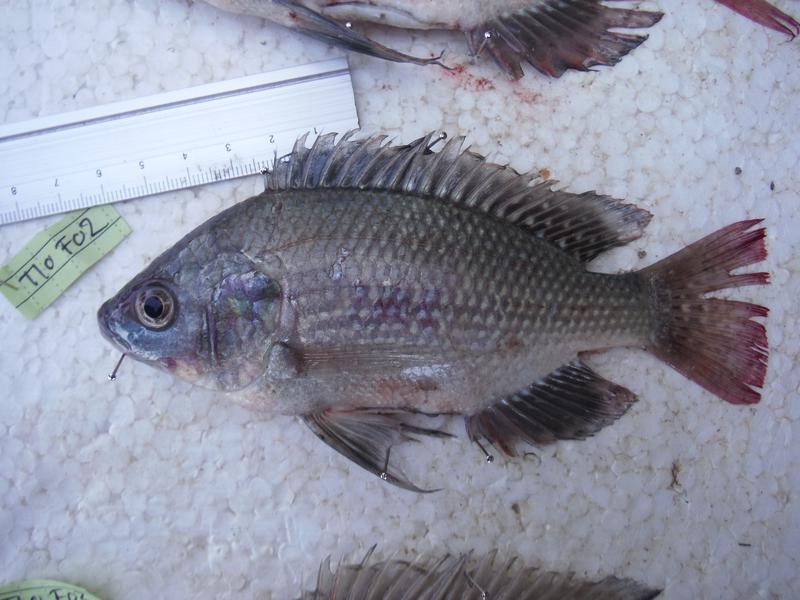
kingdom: Animalia
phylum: Chordata
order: Perciformes
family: Cichlidae
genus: Oreochromis
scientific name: Oreochromis esculentus
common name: Carp
